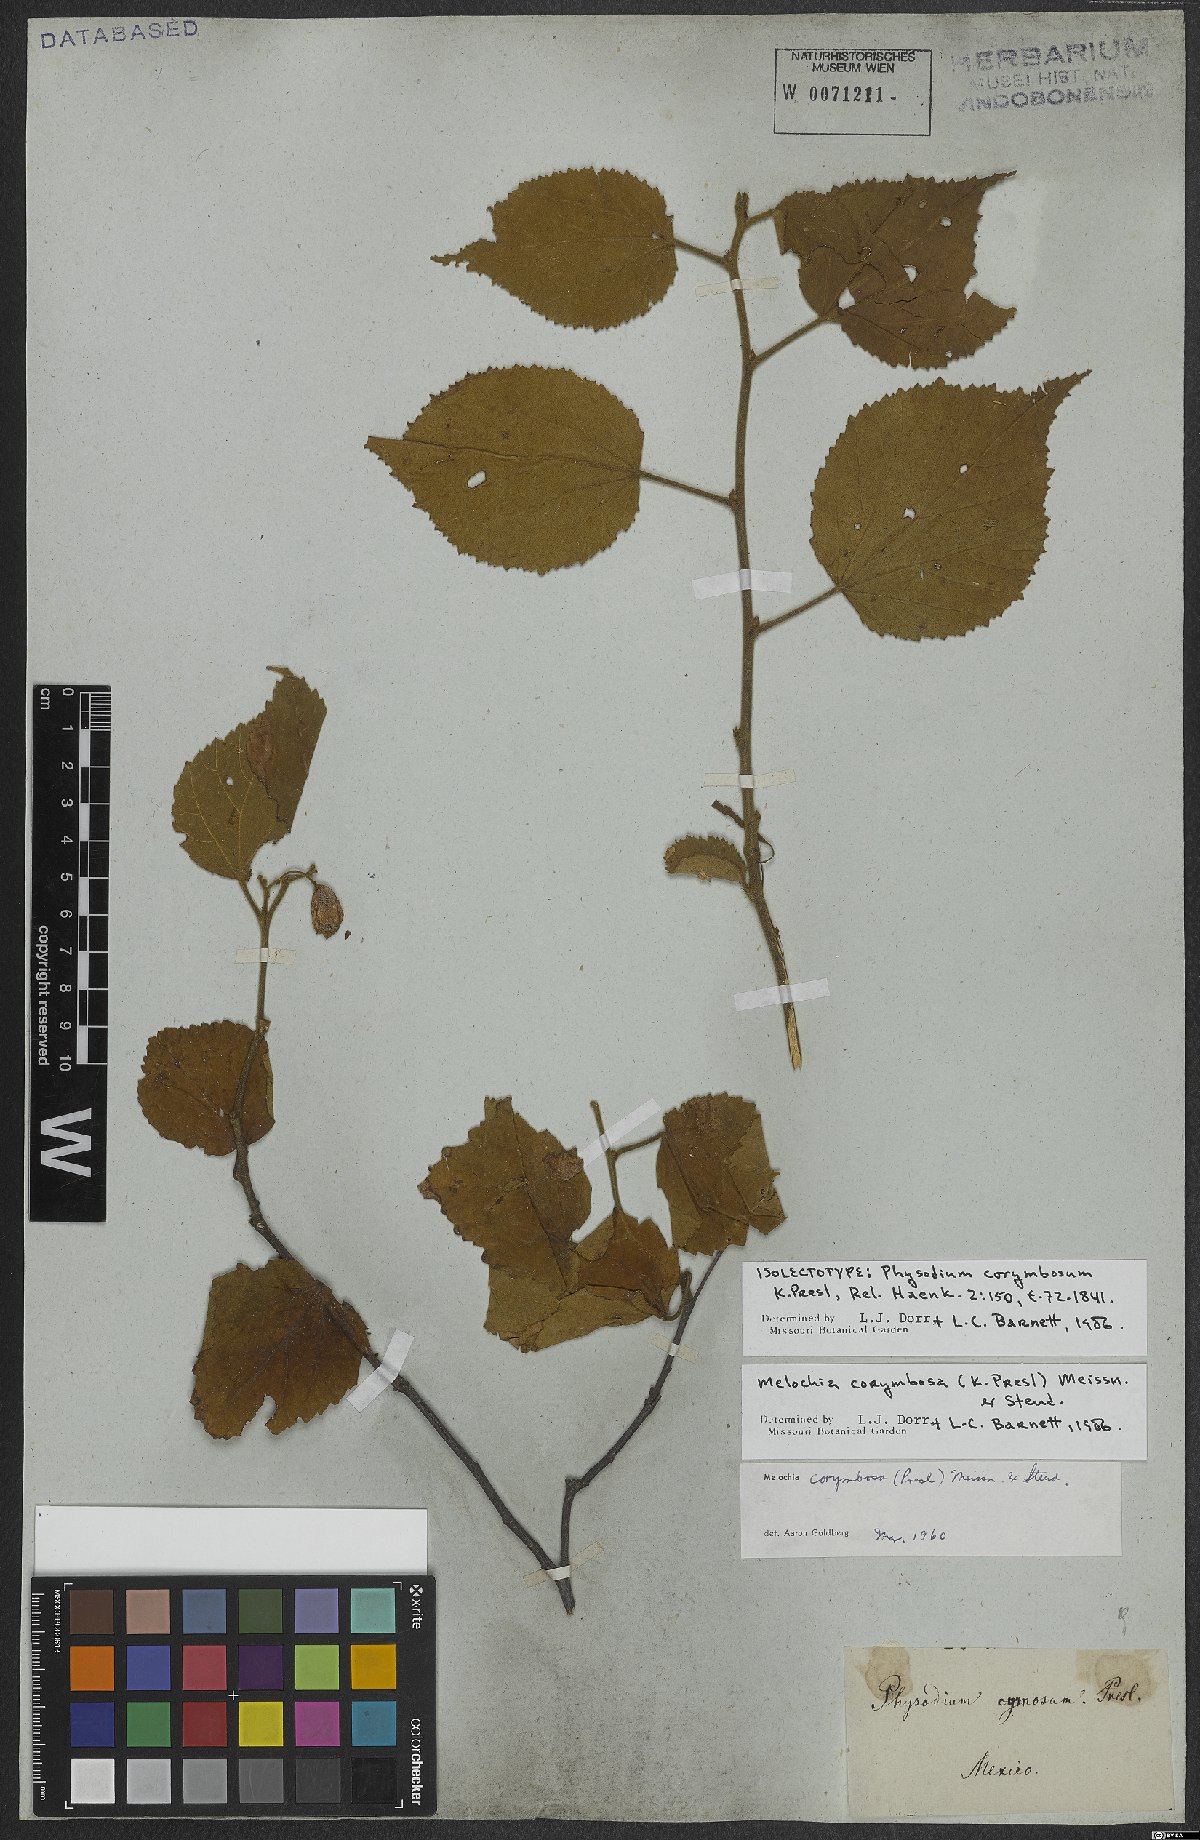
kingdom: Plantae
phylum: Tracheophyta
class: Magnoliopsida
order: Malvales
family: Malvaceae
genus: Physodium
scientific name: Physodium corymbosum
